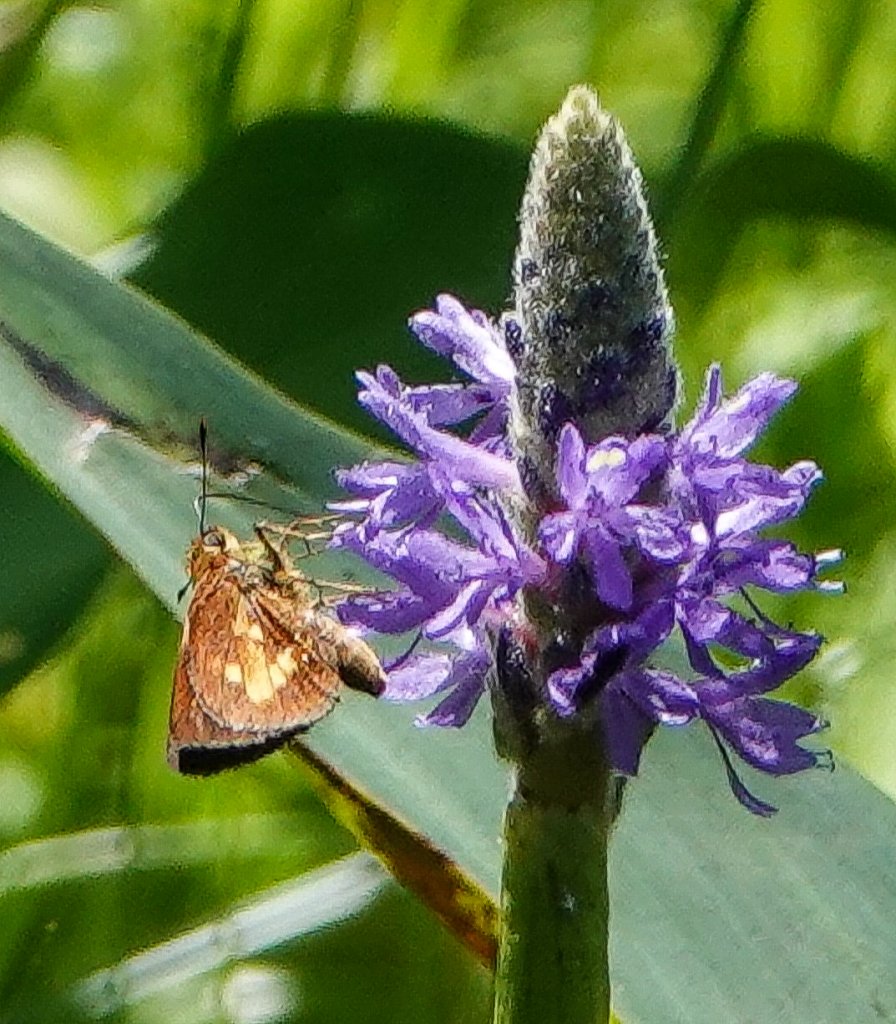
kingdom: Animalia
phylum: Arthropoda
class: Insecta
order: Lepidoptera
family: Hesperiidae
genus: Poanes
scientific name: Poanes massasoit
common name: Mulberry Wing
